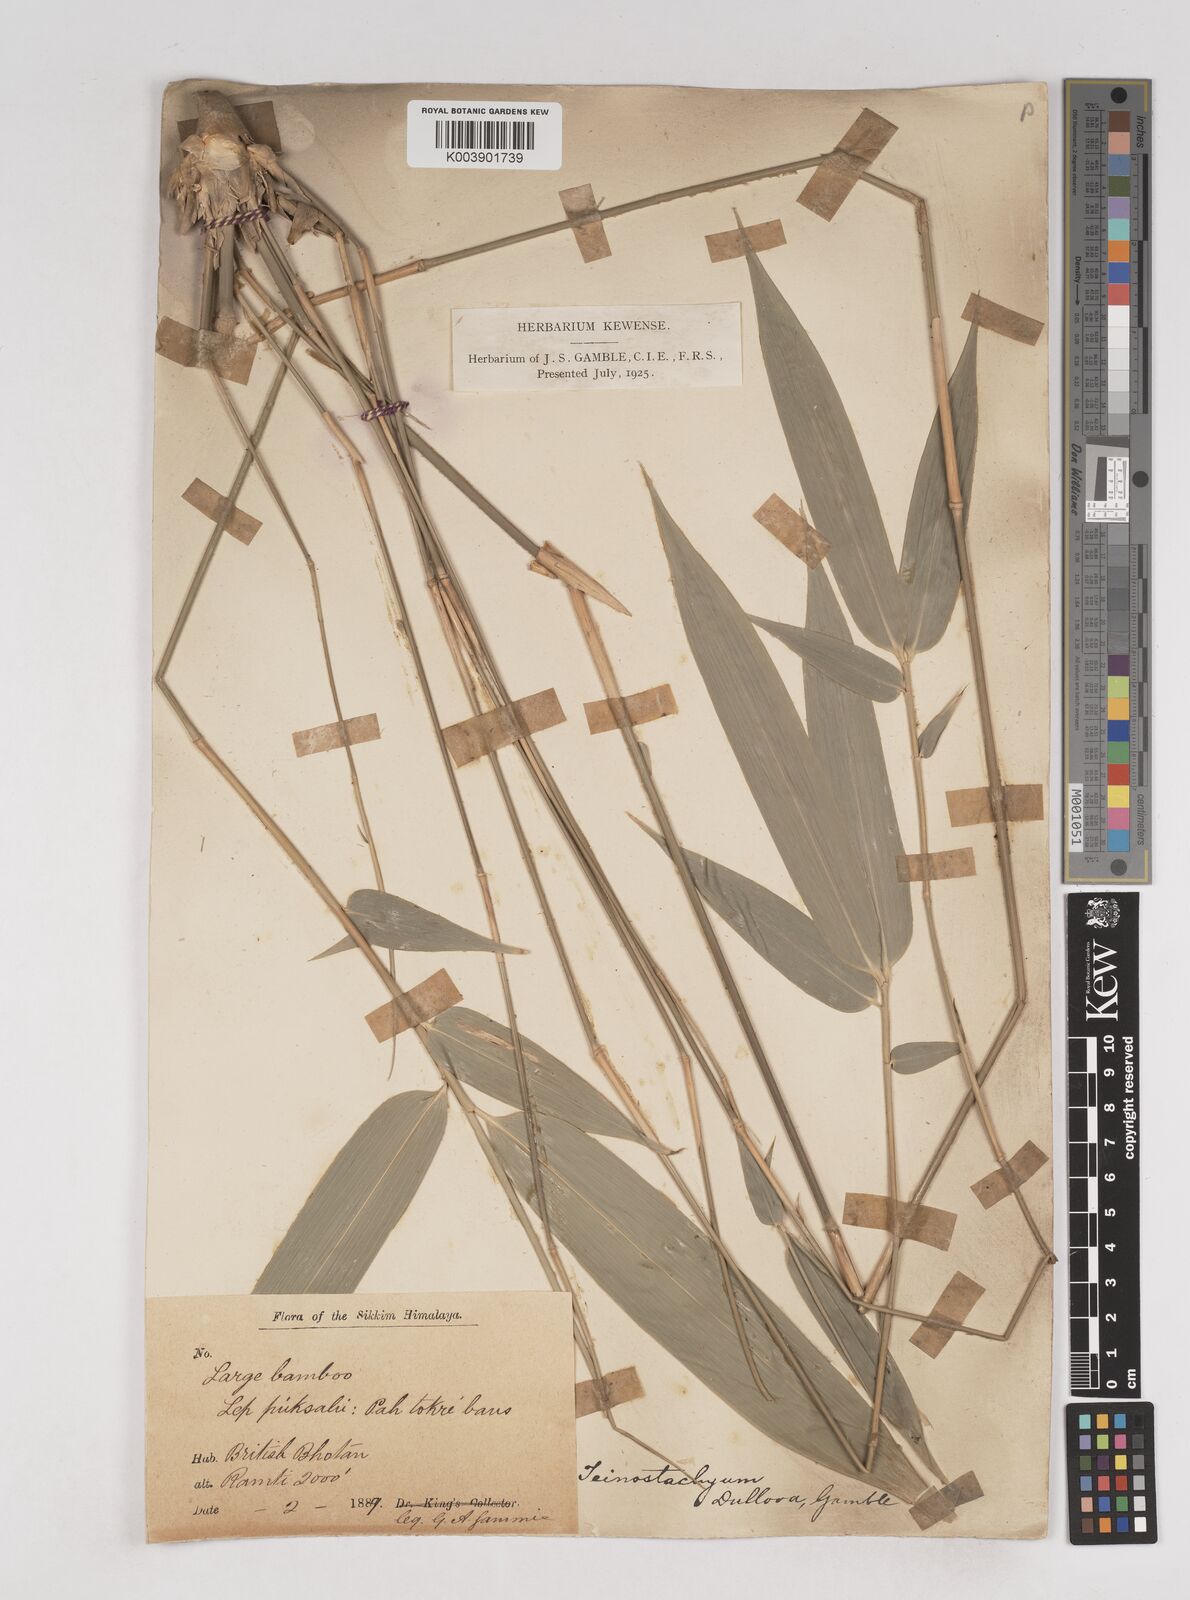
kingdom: Plantae
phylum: Tracheophyta
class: Liliopsida
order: Poales
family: Poaceae
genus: Schizostachyum
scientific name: Schizostachyum dullooa
